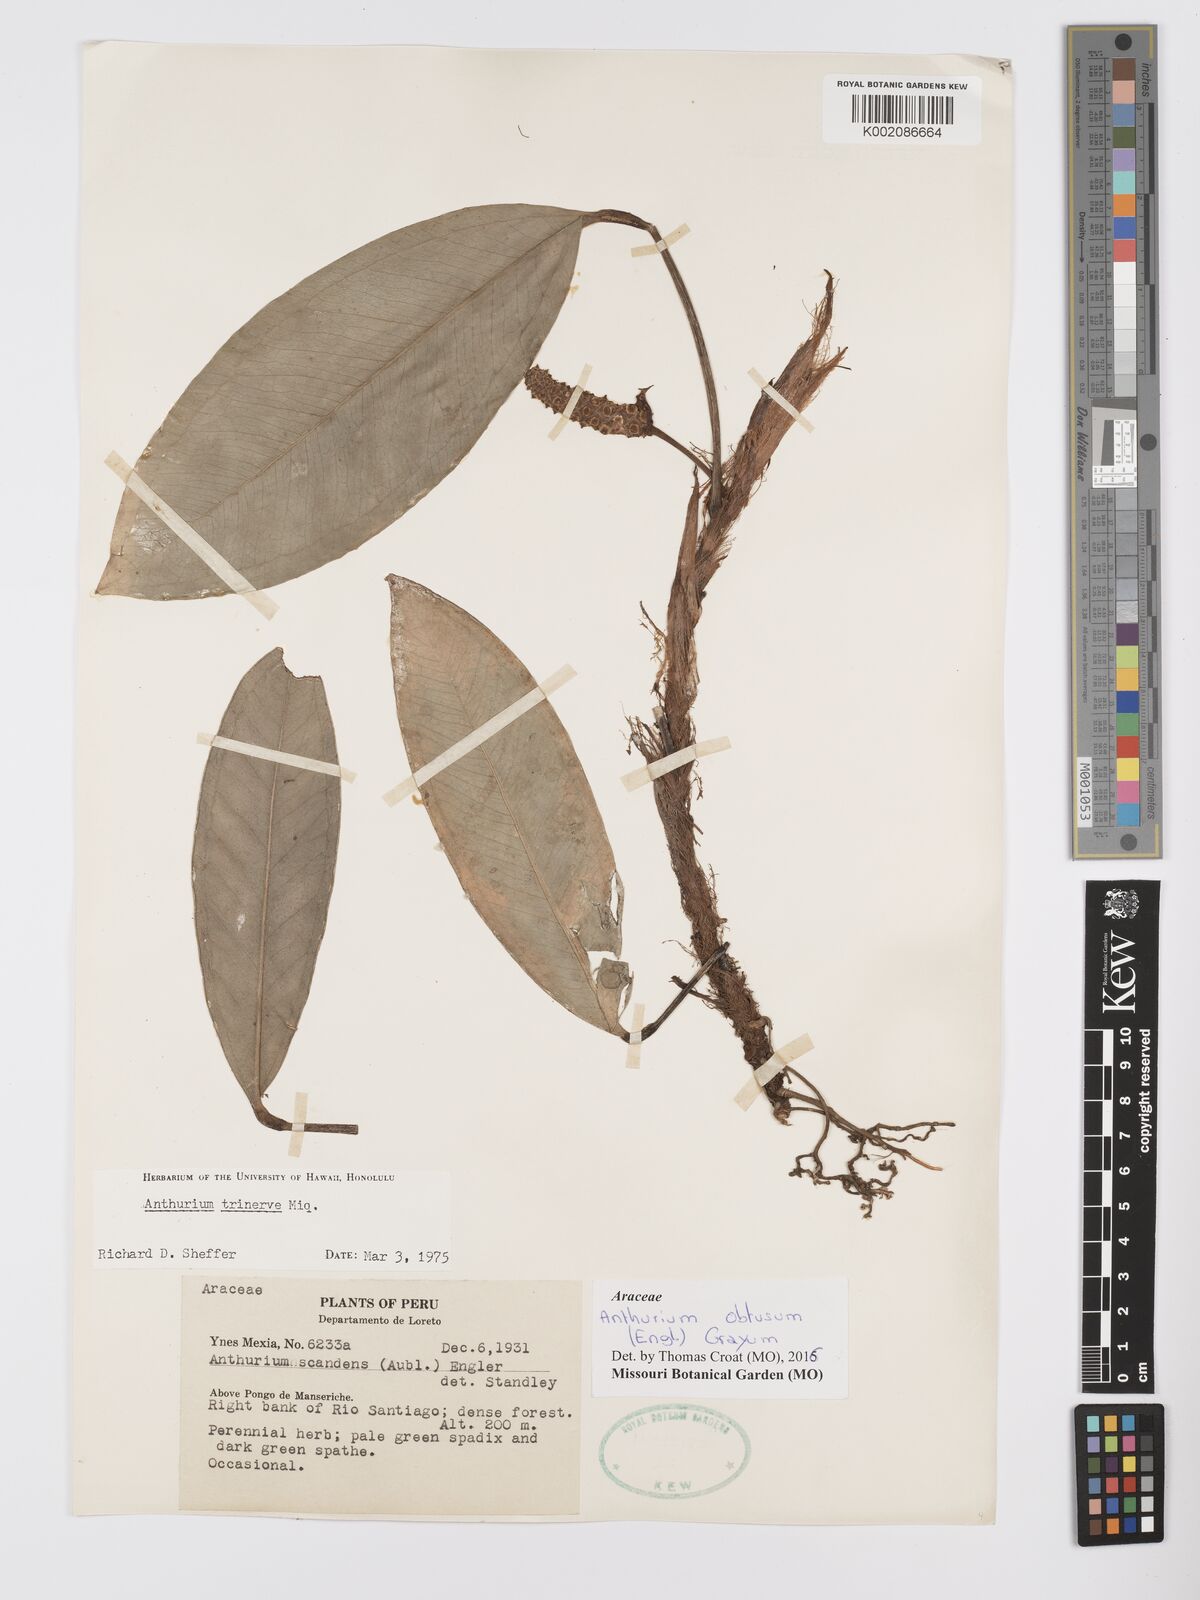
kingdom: Plantae
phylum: Tracheophyta
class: Liliopsida
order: Alismatales
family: Araceae
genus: Anthurium
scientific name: Anthurium obtusum
